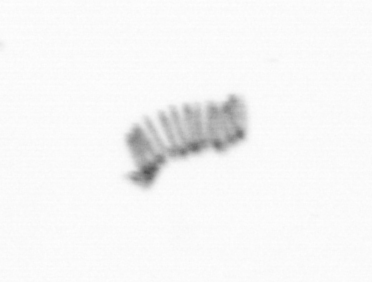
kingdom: Chromista
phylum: Ochrophyta
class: Bacillariophyceae
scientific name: Bacillariophyceae
